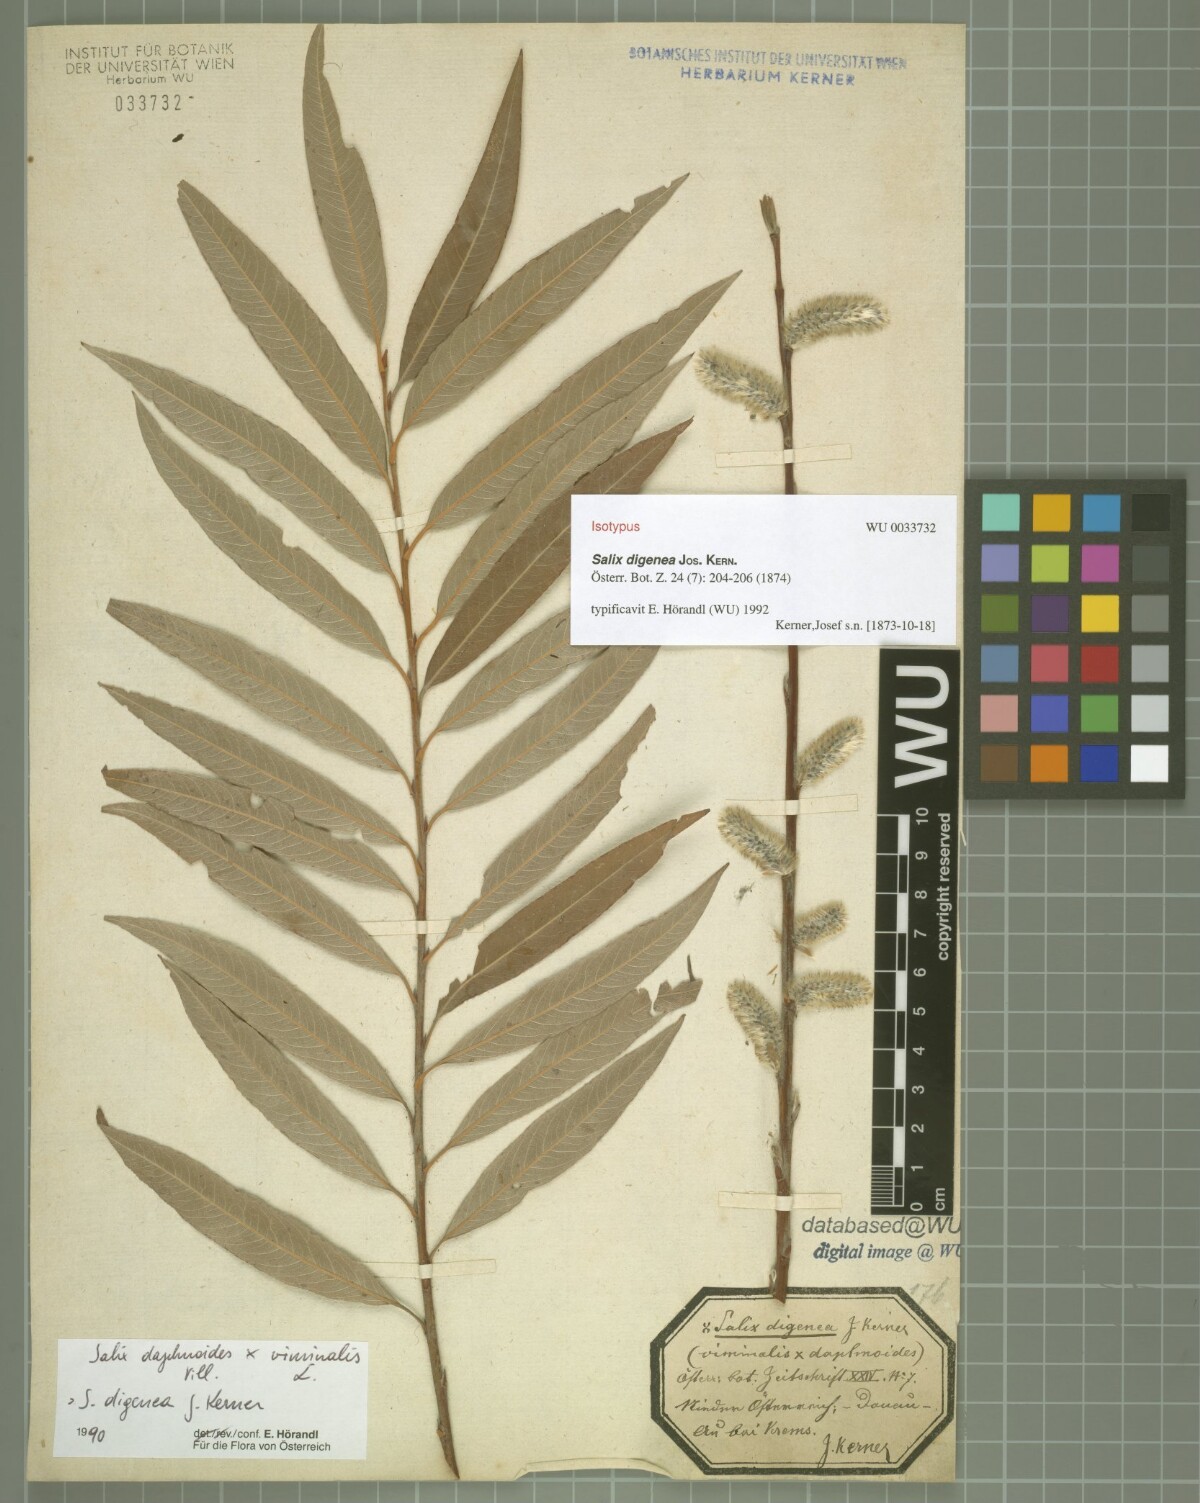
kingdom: Plantae
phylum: Tracheophyta
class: Magnoliopsida
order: Malpighiales
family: Salicaceae
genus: Salix
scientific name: Salix digenea
